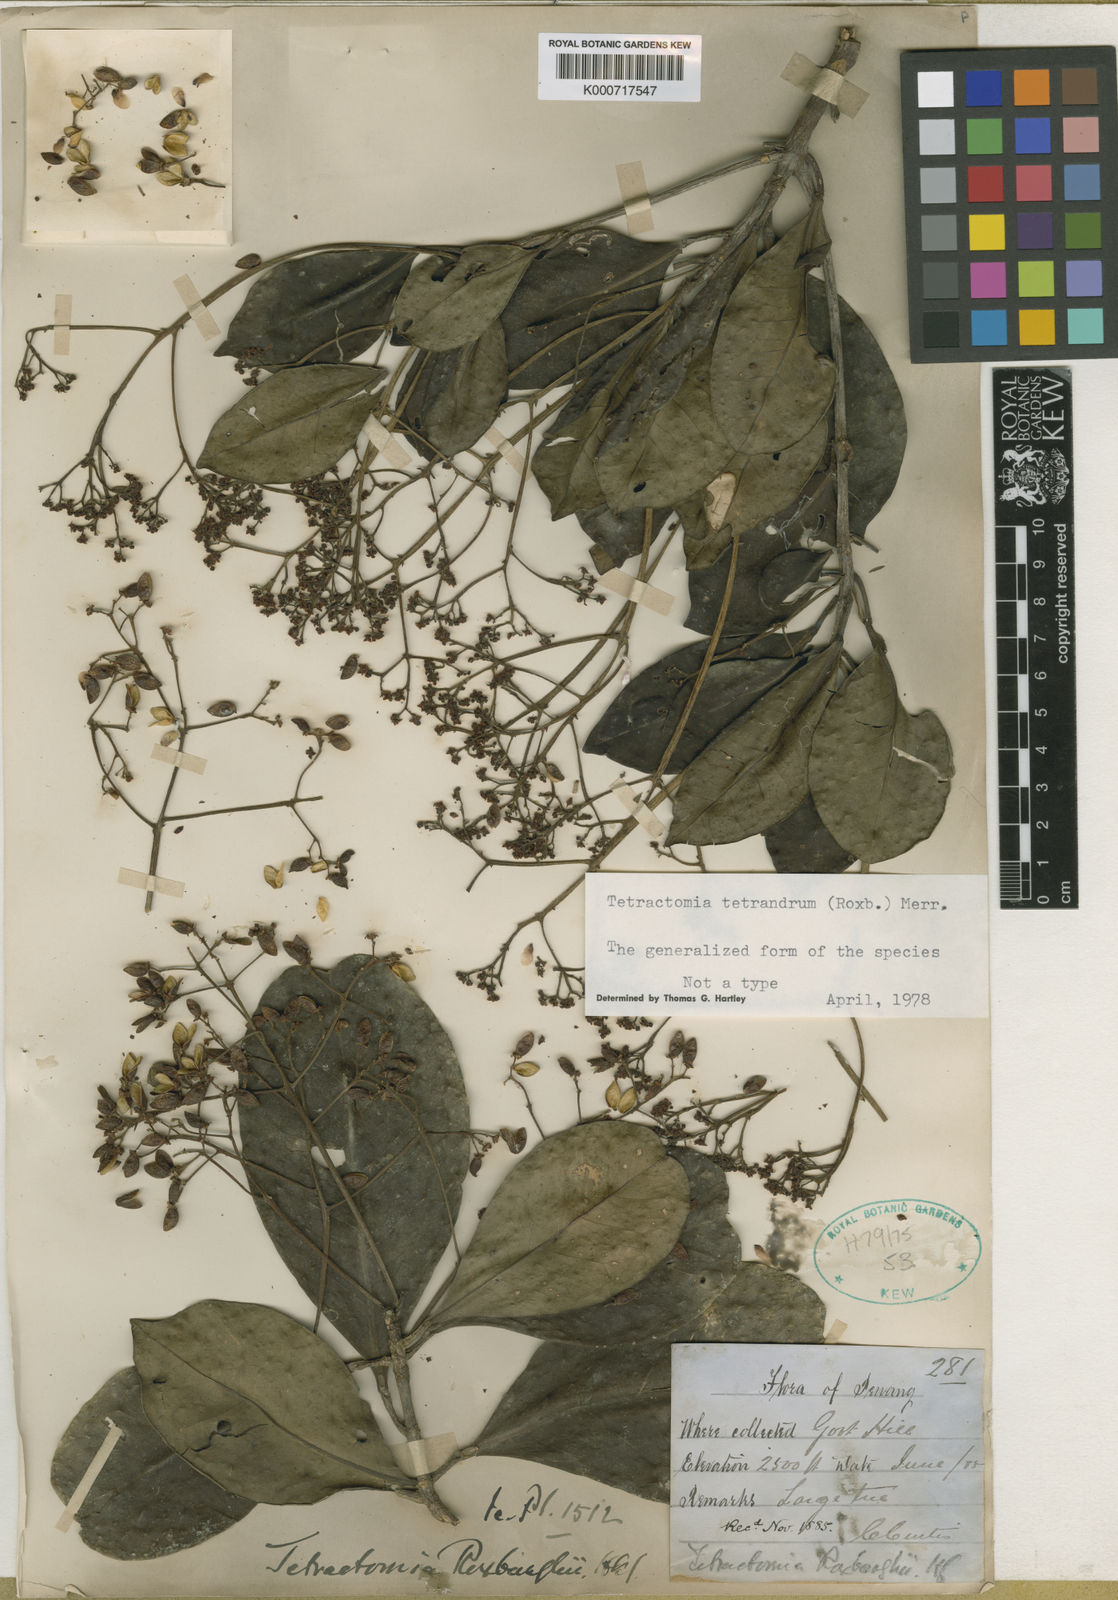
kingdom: Plantae
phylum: Tracheophyta
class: Magnoliopsida
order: Sapindales
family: Rutaceae
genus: Tetractomia
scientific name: Tetractomia tetrandra
